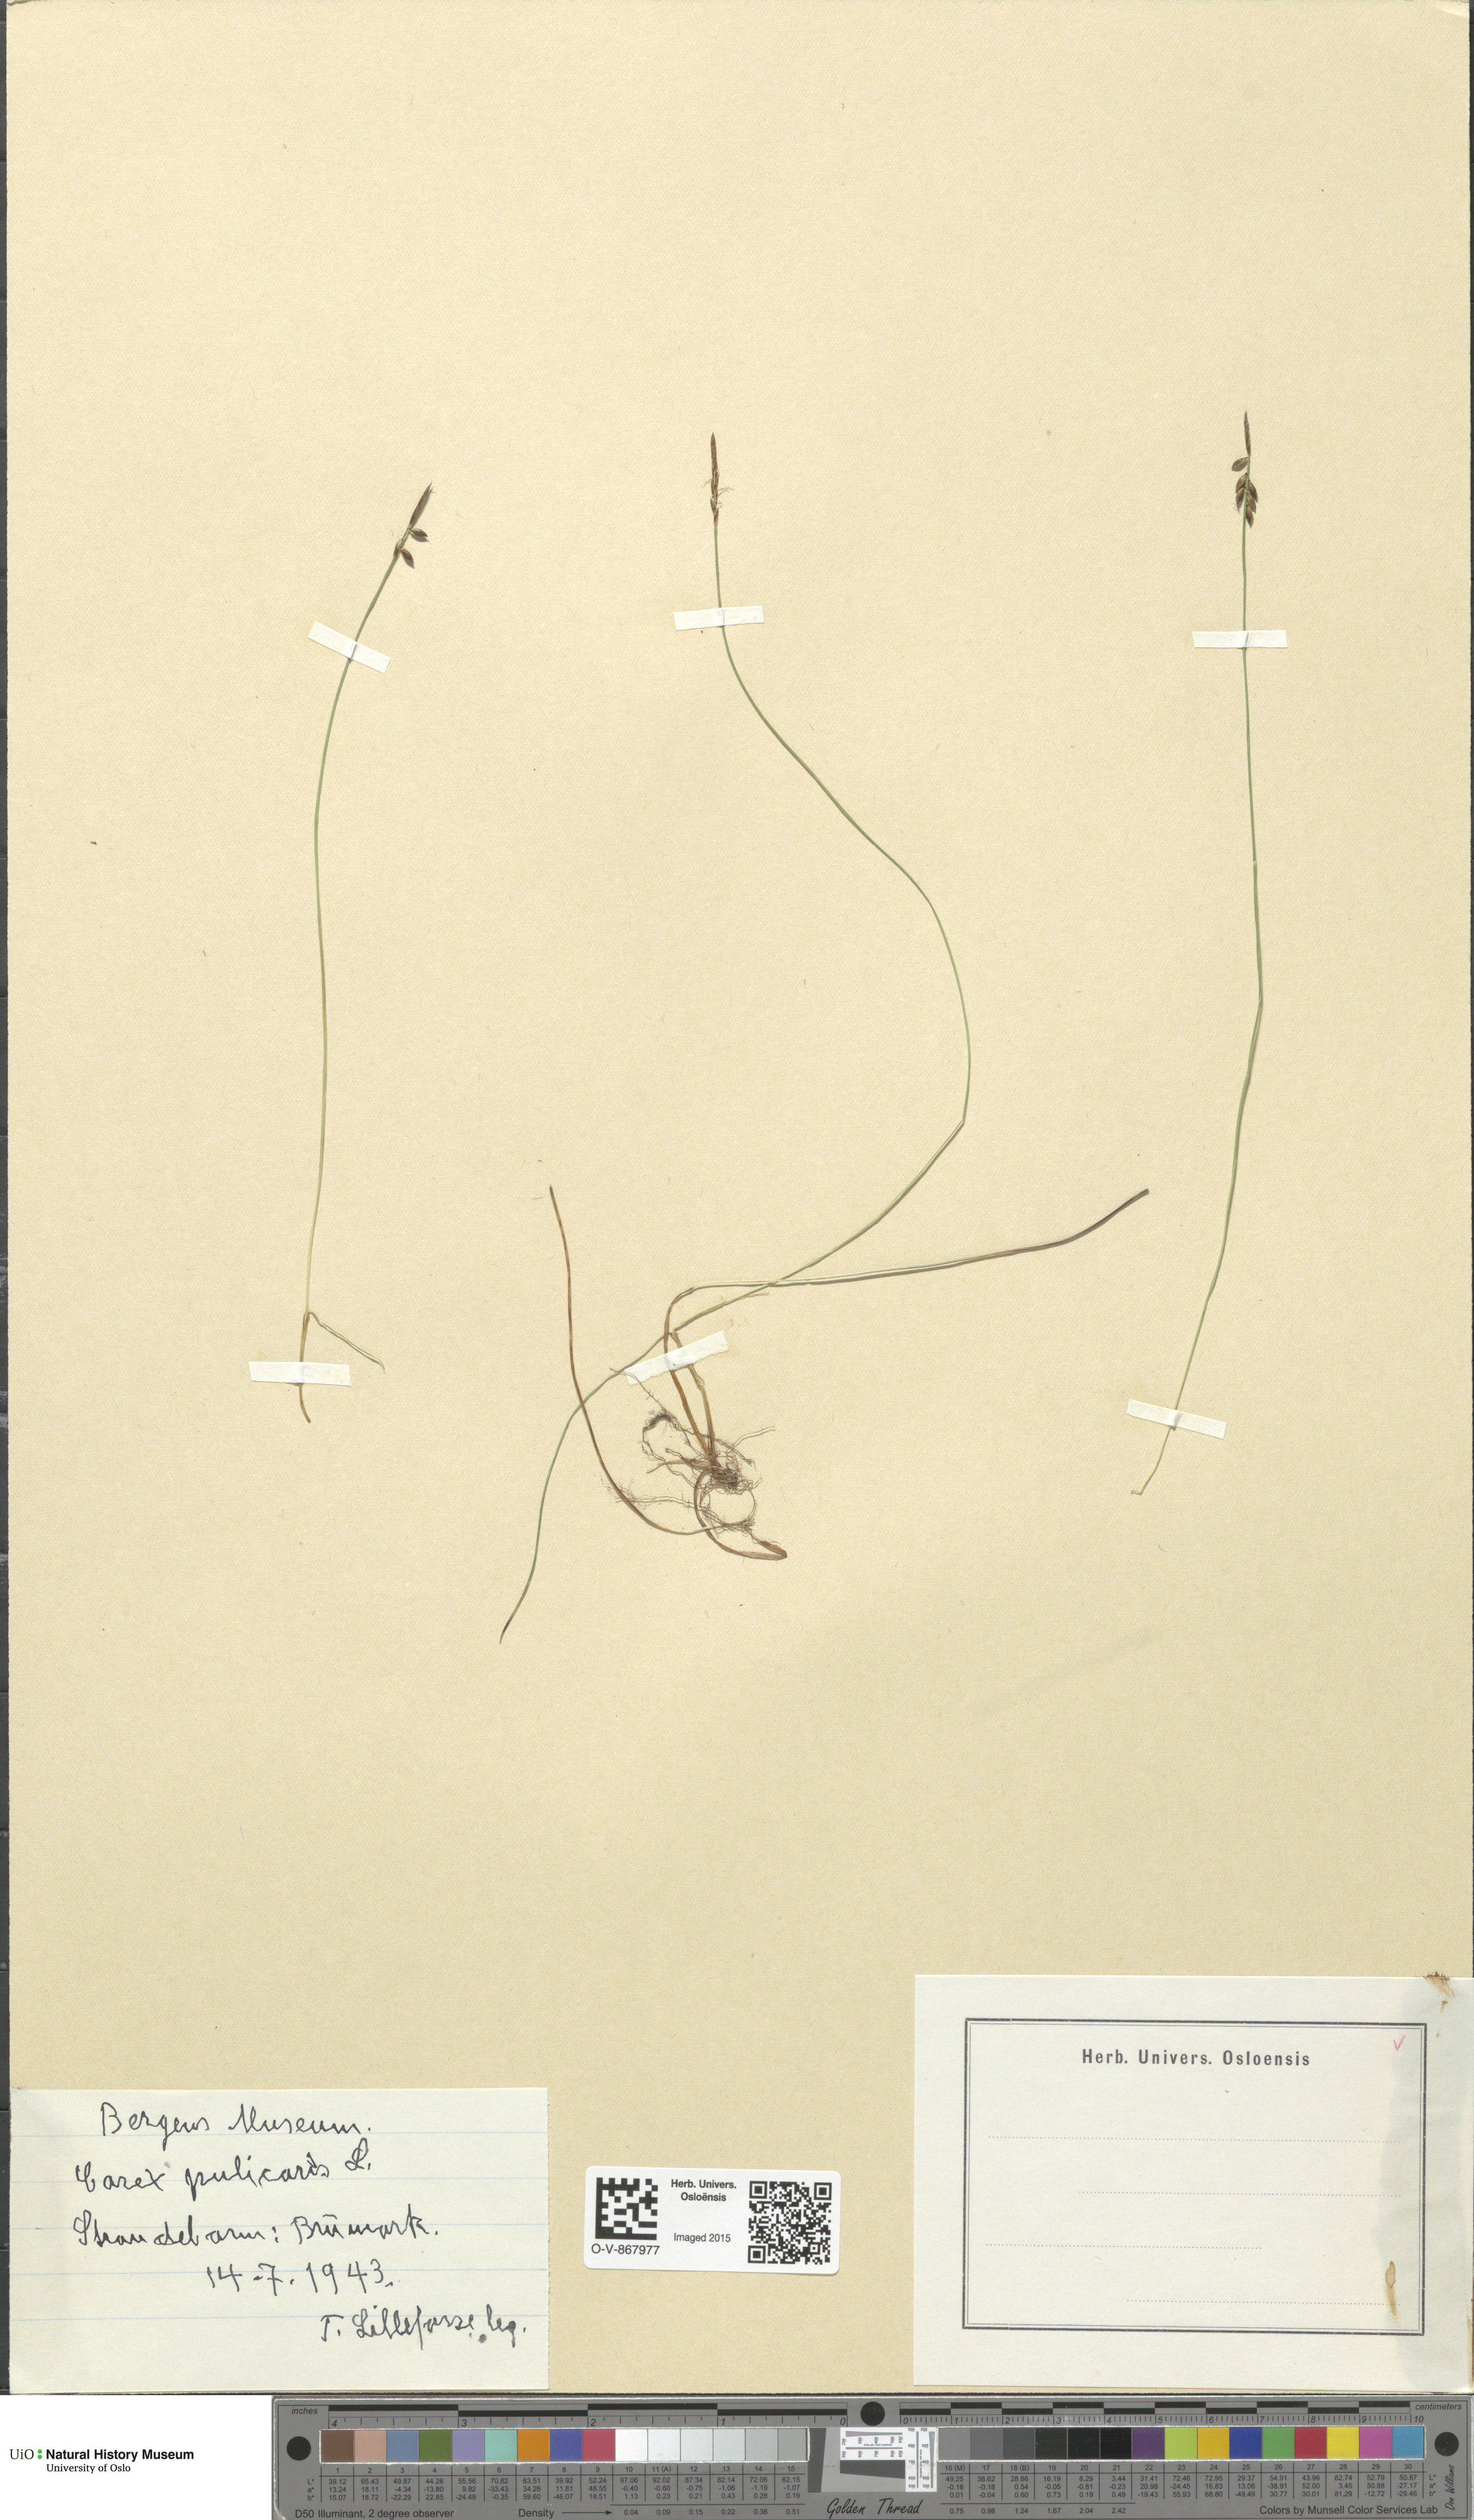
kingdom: Plantae
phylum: Tracheophyta
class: Liliopsida
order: Poales
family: Cyperaceae
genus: Carex
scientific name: Carex pulicaris
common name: Flea sedge
